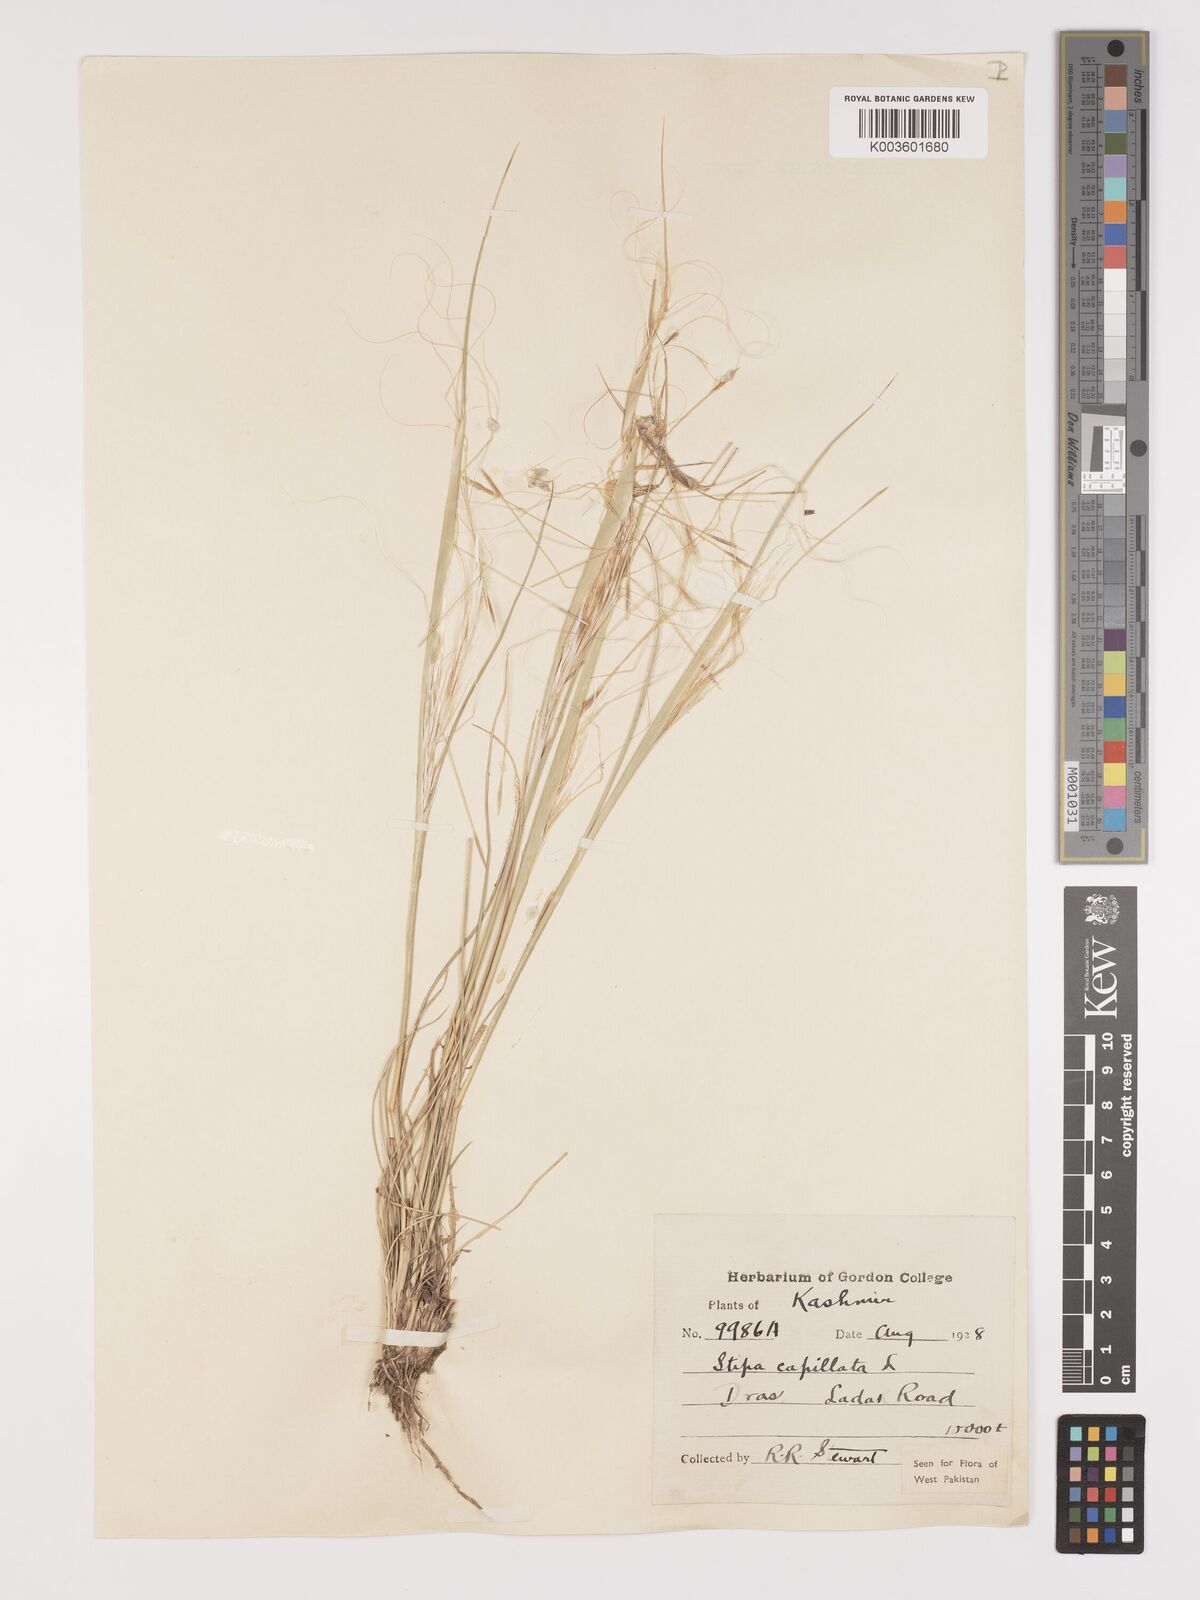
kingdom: Plantae
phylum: Tracheophyta
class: Liliopsida
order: Poales
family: Poaceae
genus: Stipa
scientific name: Stipa capillata
